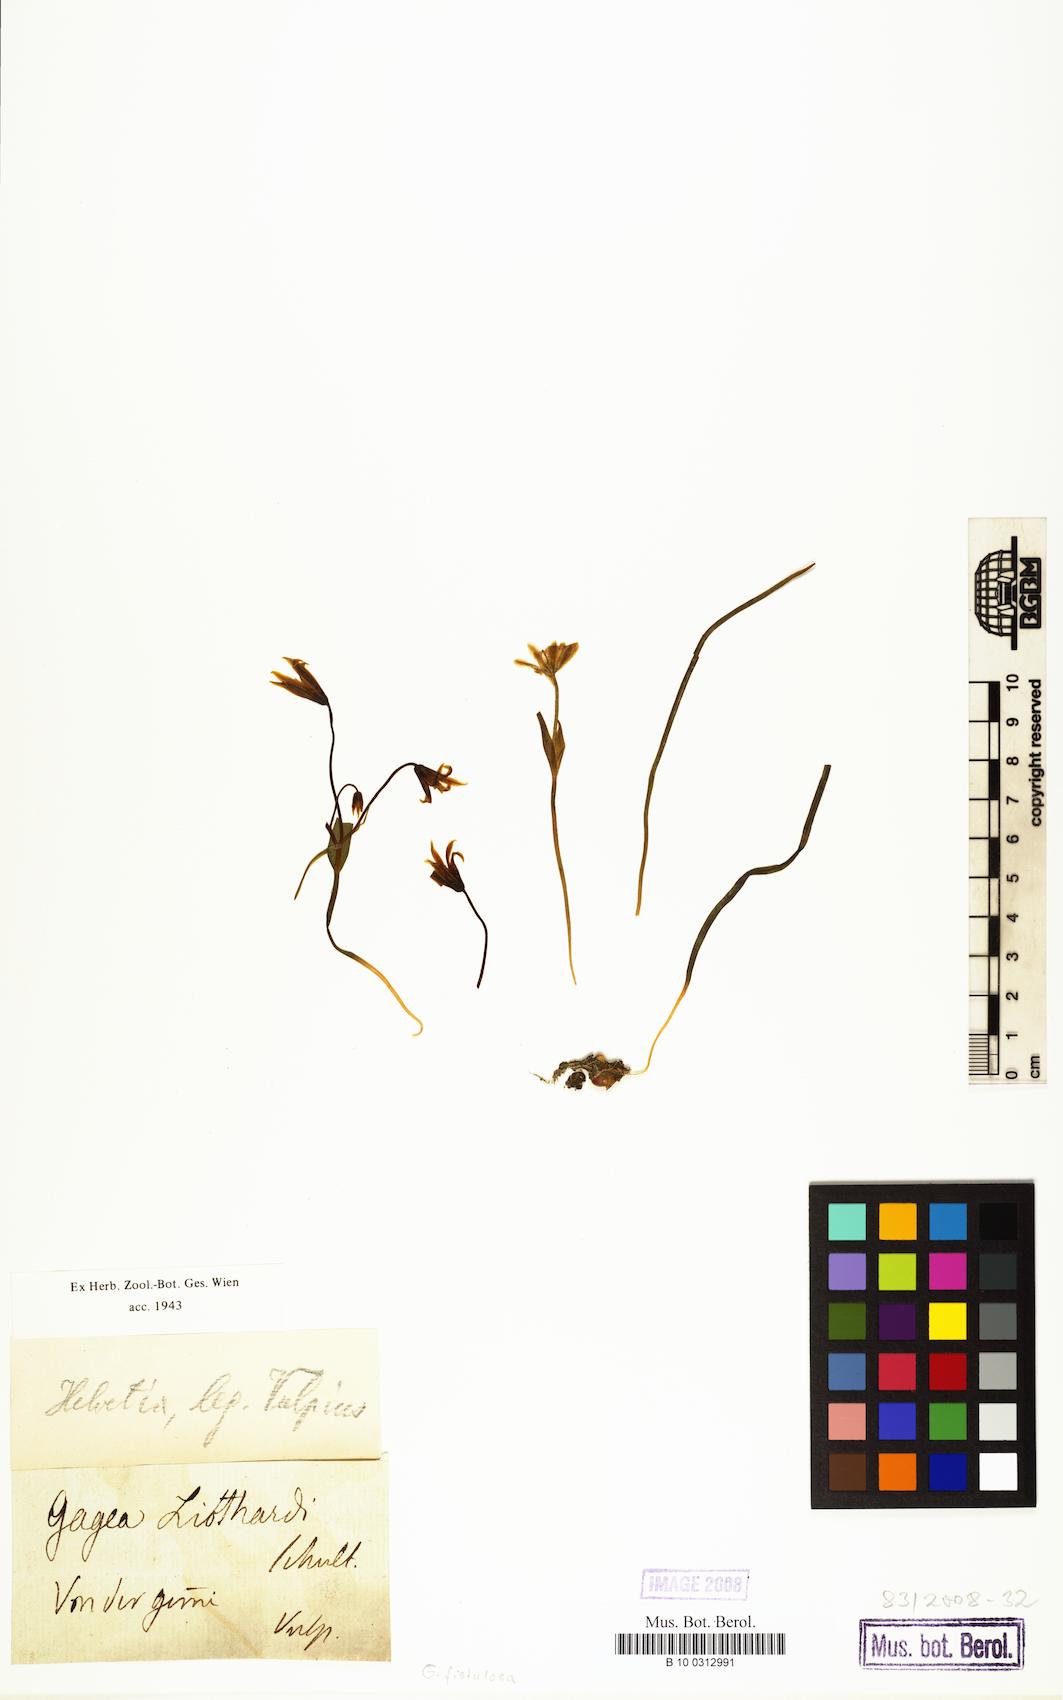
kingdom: Plantae
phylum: Tracheophyta
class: Liliopsida
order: Liliales
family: Liliaceae
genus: Gagea
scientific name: Gagea
